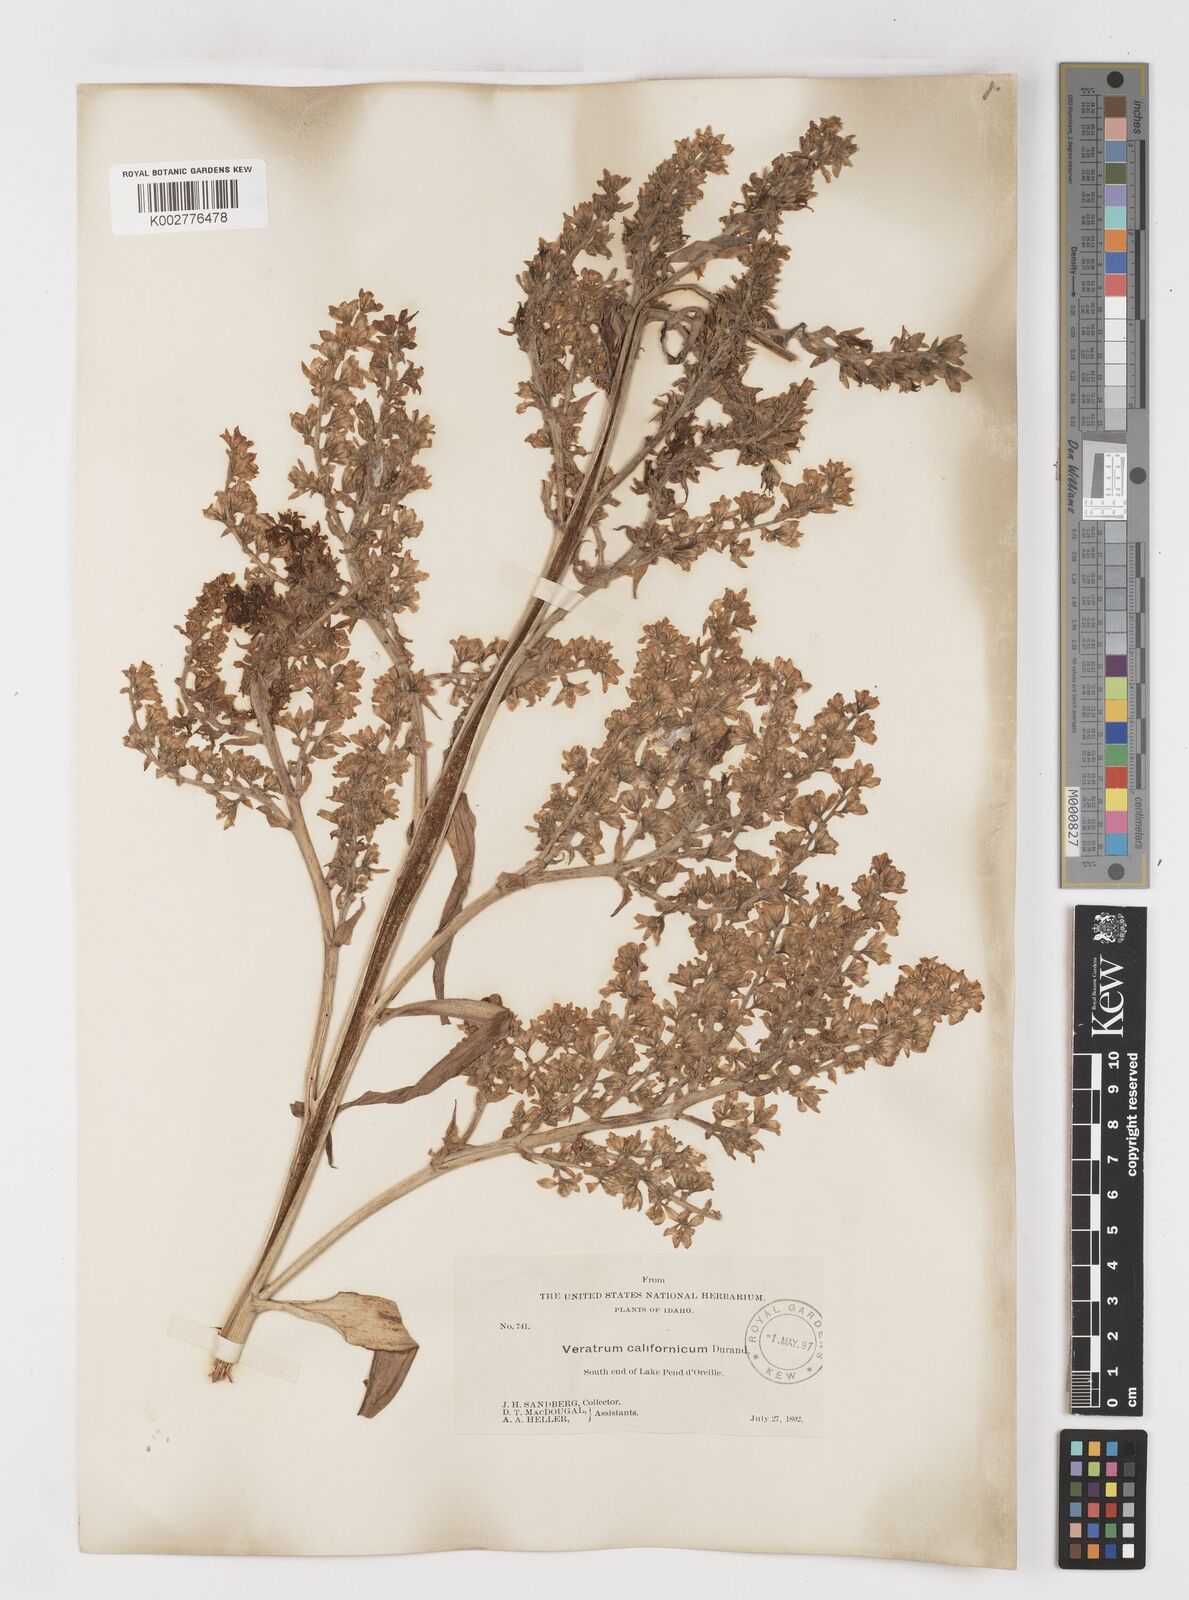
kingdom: Plantae
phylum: Tracheophyta
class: Liliopsida
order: Liliales
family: Melanthiaceae
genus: Veratrum
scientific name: Veratrum californicum
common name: California veratrum
